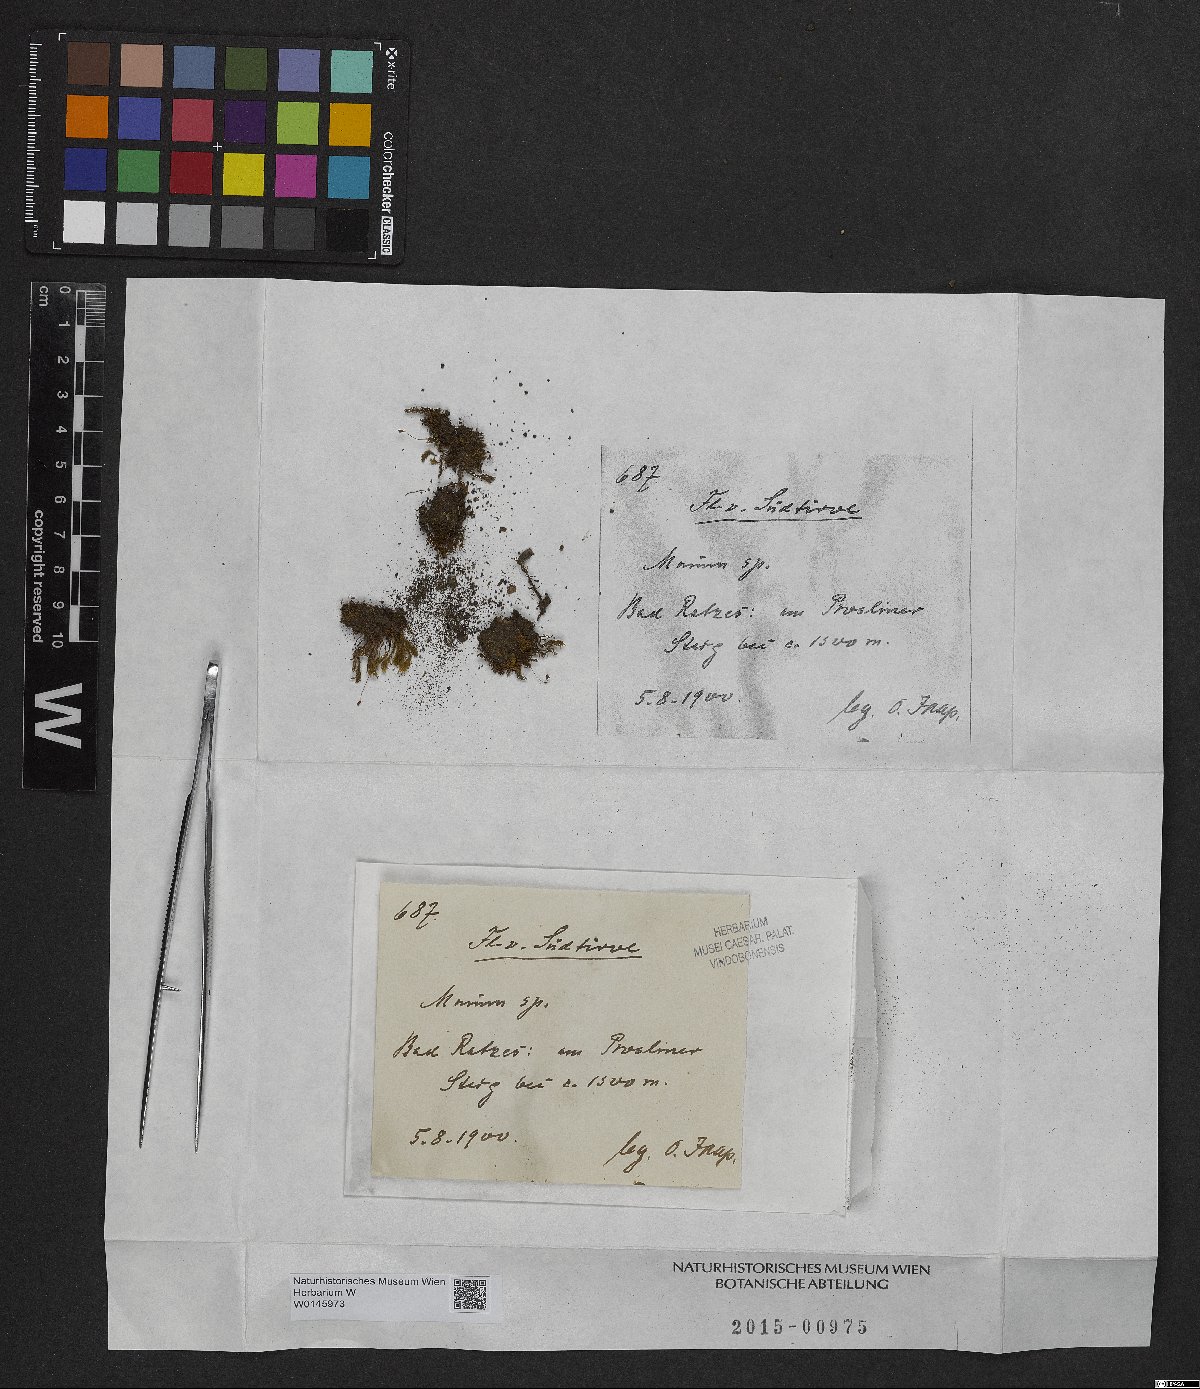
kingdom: Plantae
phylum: Bryophyta
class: Bryopsida
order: Bryales
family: Mniaceae
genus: Mnium
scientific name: Mnium
